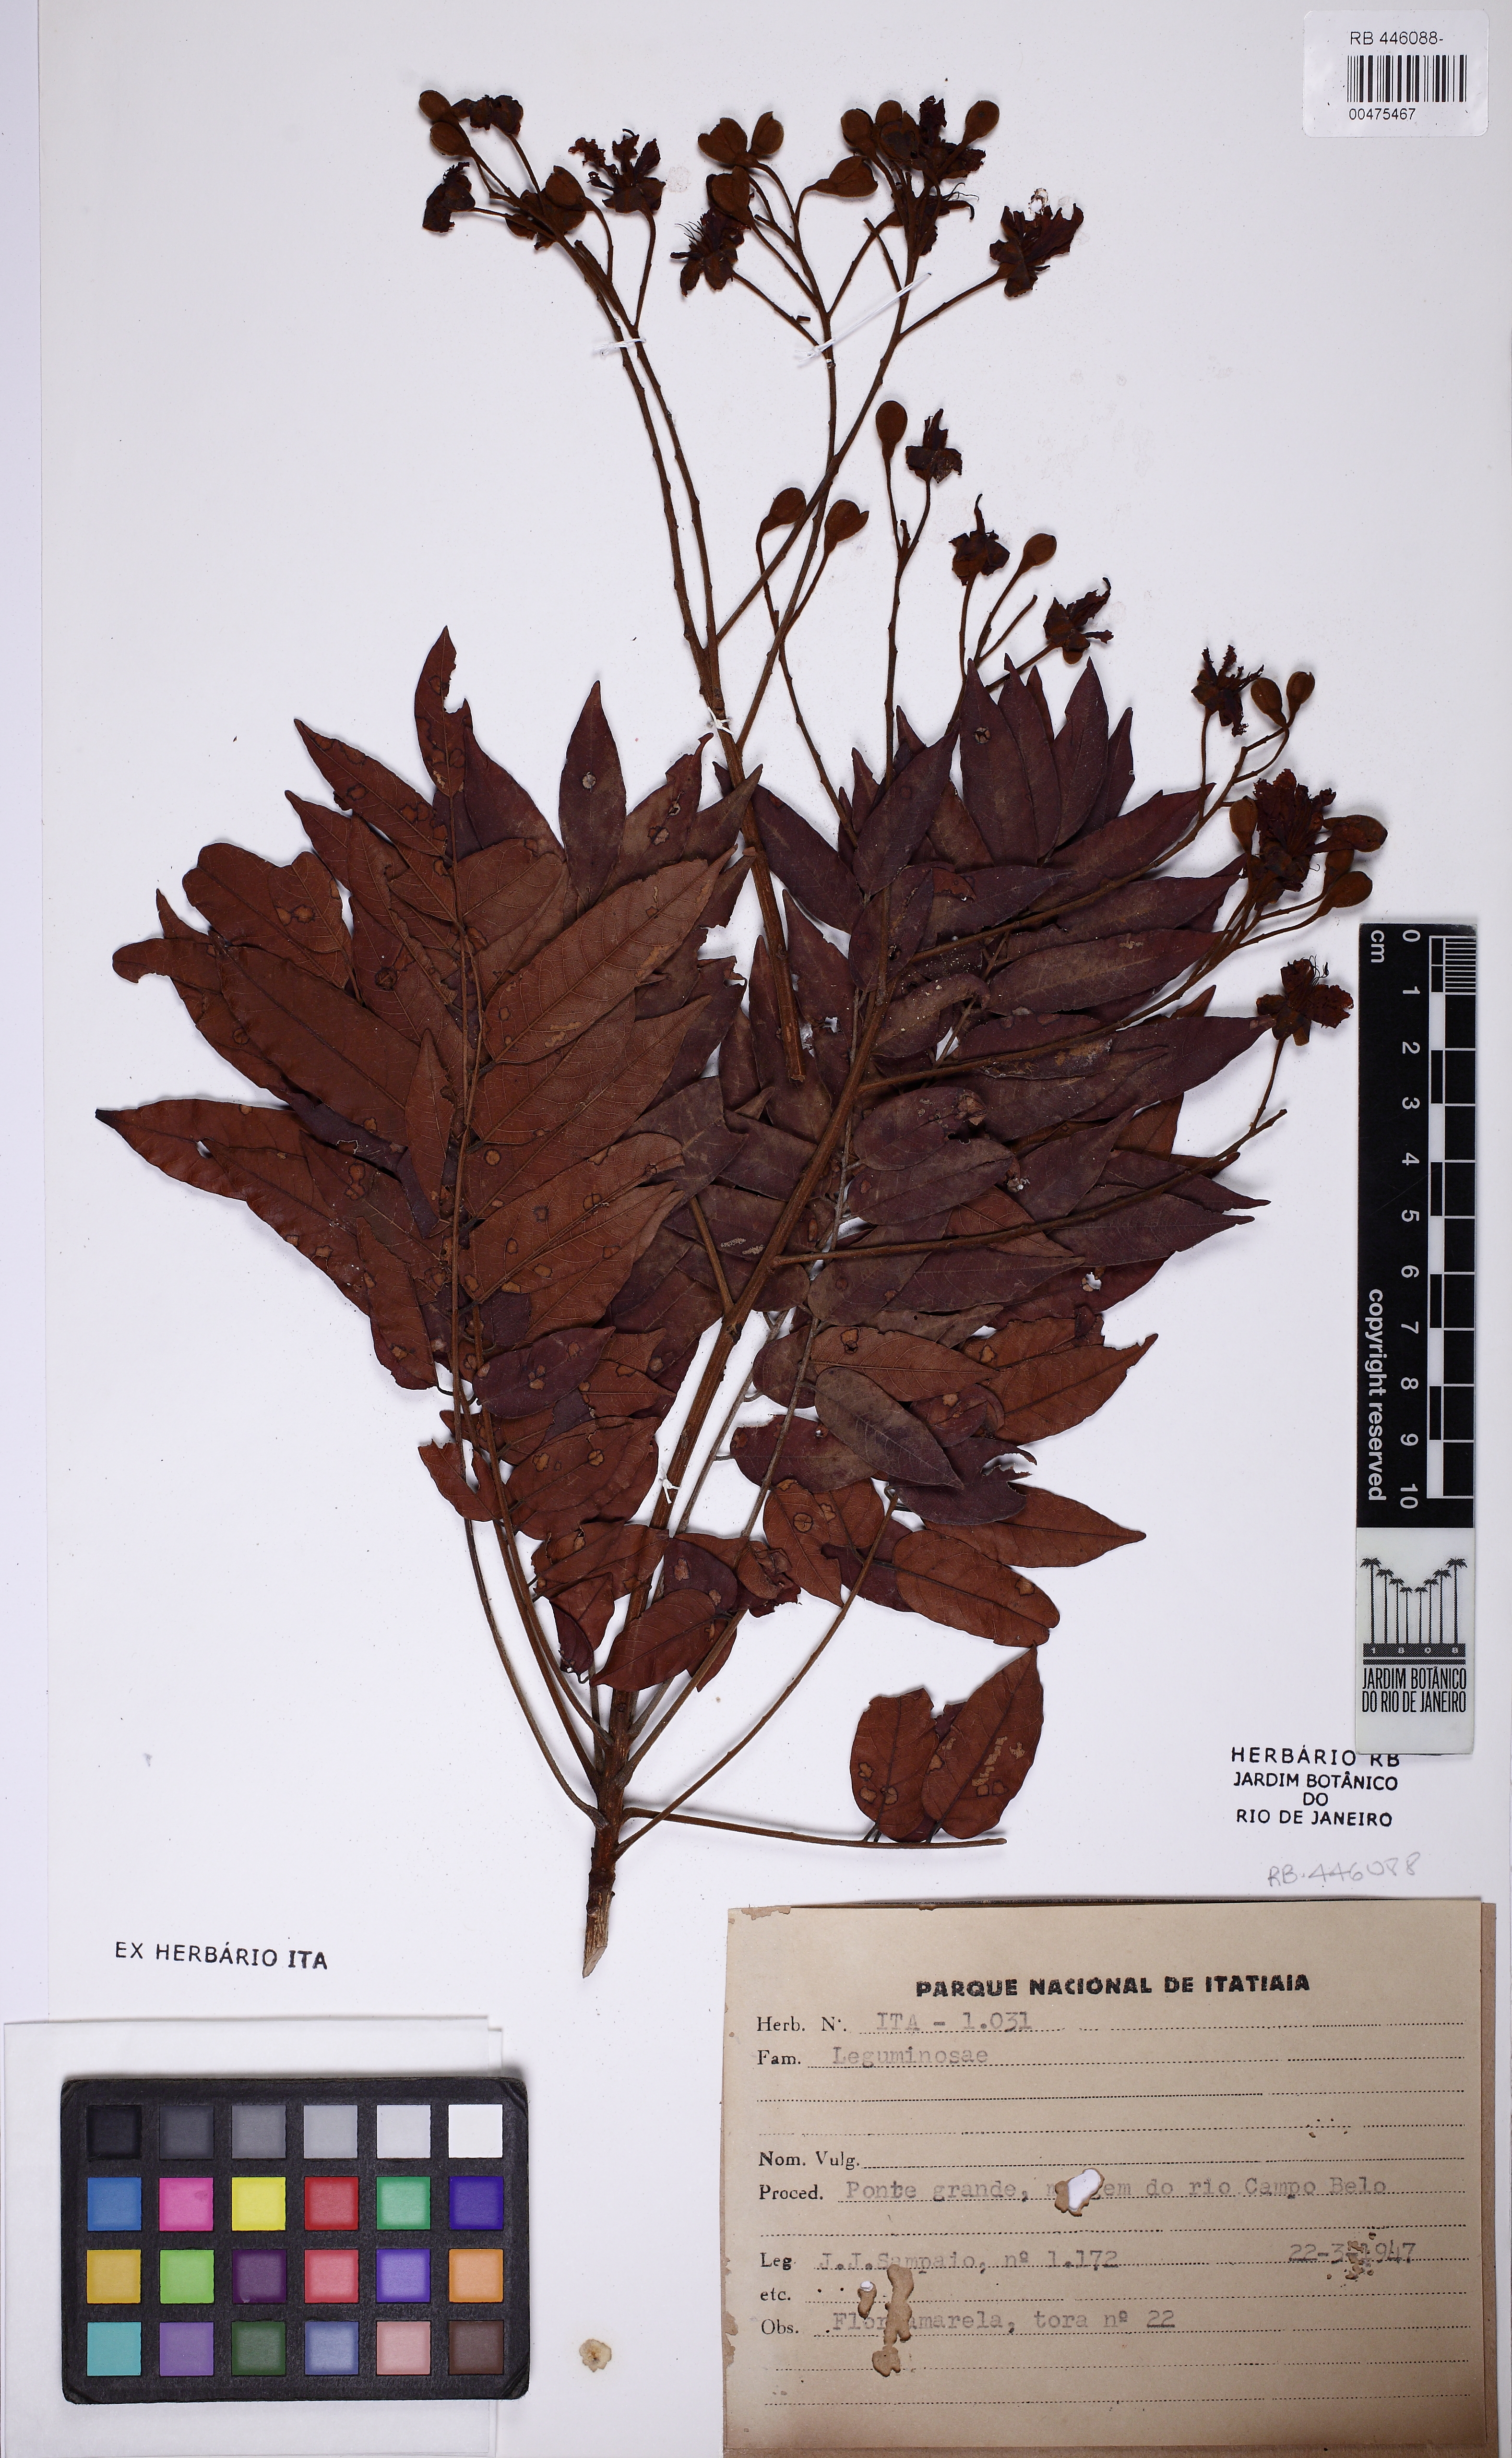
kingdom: Plantae
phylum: Tracheophyta
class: Magnoliopsida
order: Fabales
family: Fabaceae
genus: Melanoxylon
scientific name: Melanoxylon
